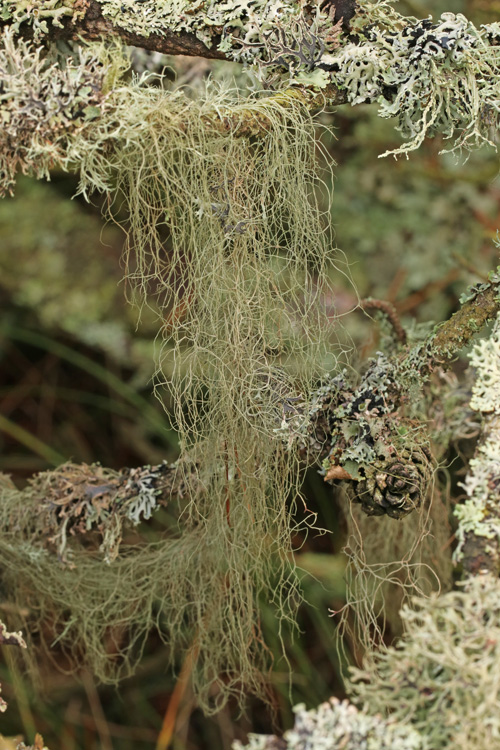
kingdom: Fungi
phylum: Ascomycota
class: Lecanoromycetes
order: Lecanorales
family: Parmeliaceae
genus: Bryoria
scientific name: Bryoria capillaris
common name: grå mankelav
